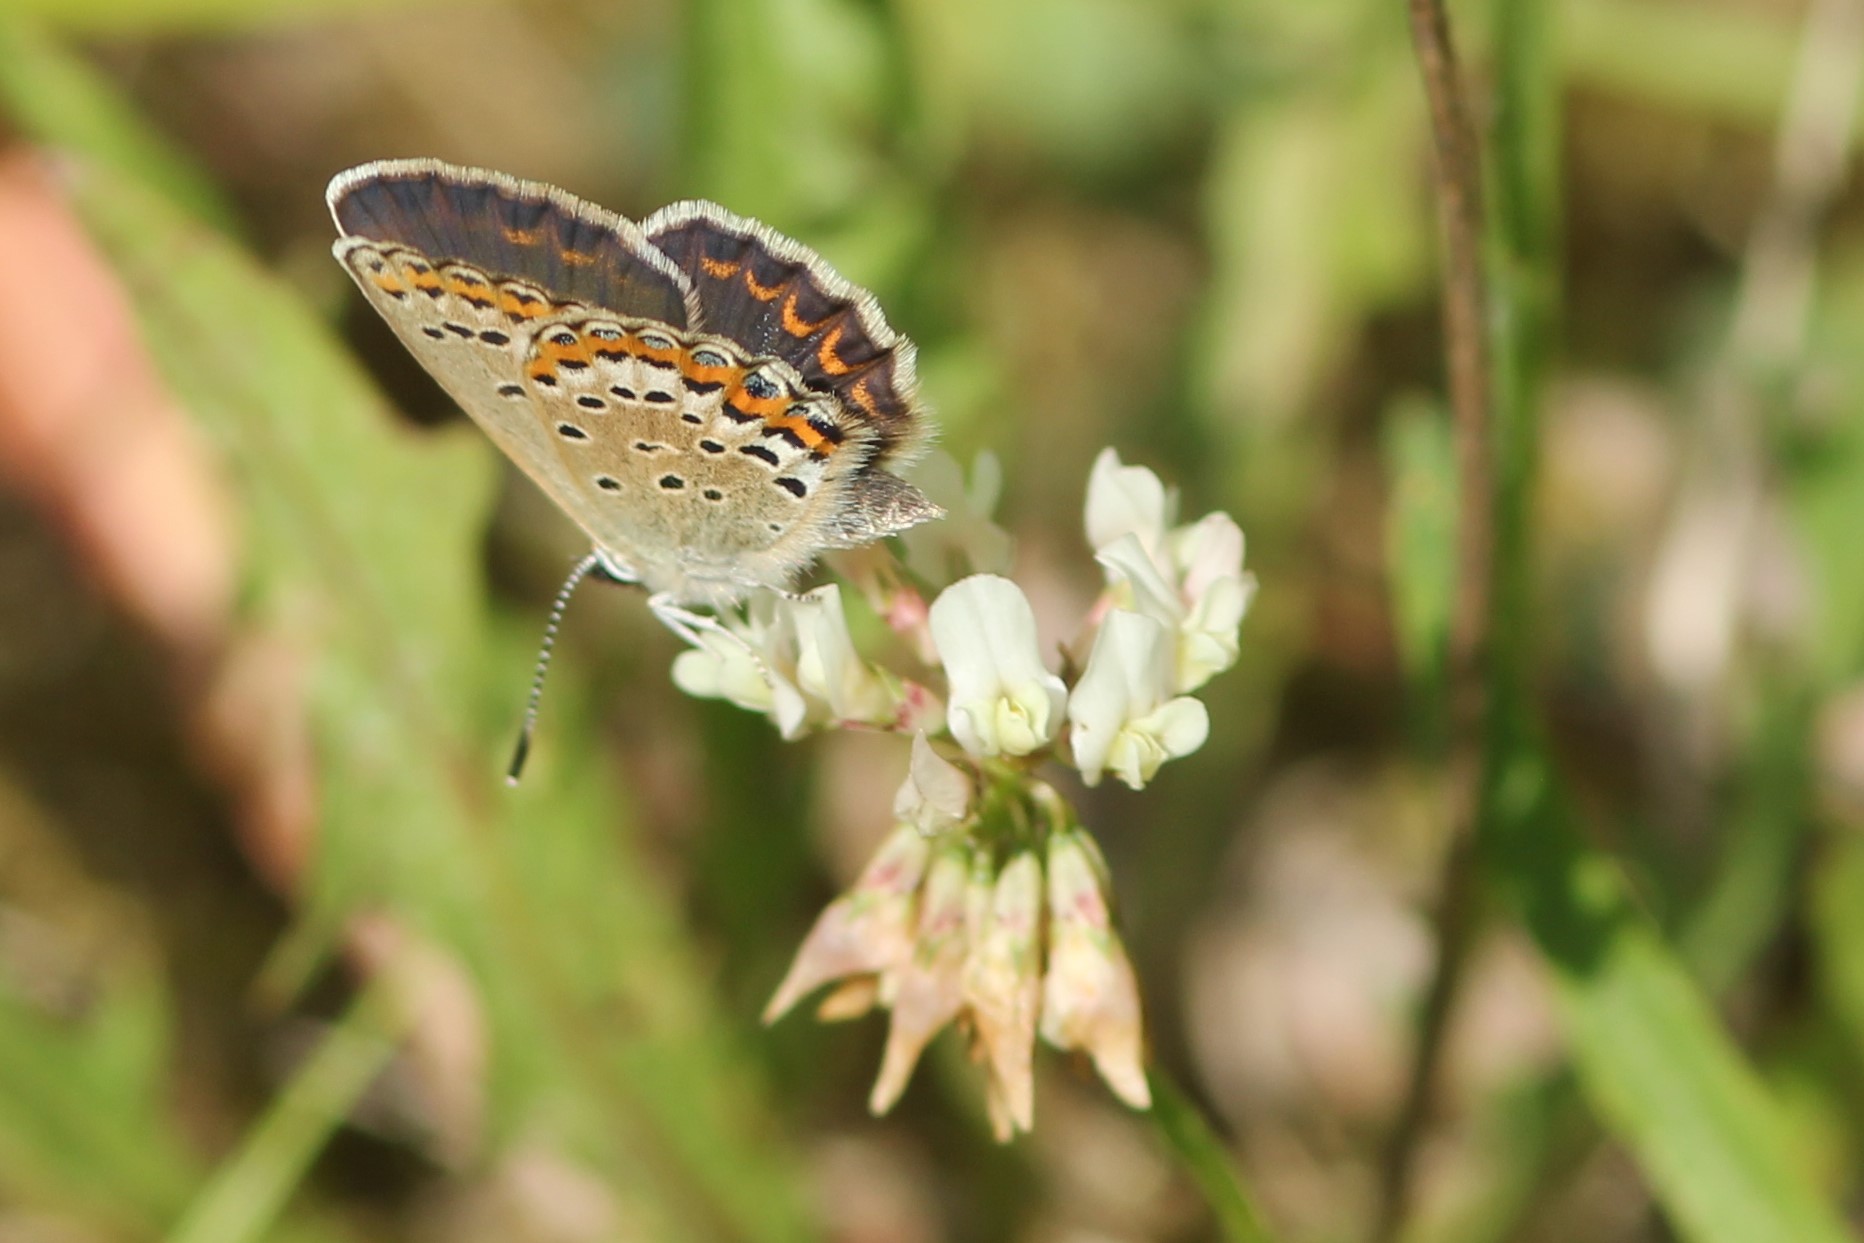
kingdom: Animalia
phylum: Arthropoda
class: Insecta
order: Lepidoptera
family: Lycaenidae
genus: Plebejus
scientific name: Plebejus argus
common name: Silver-studded blue
